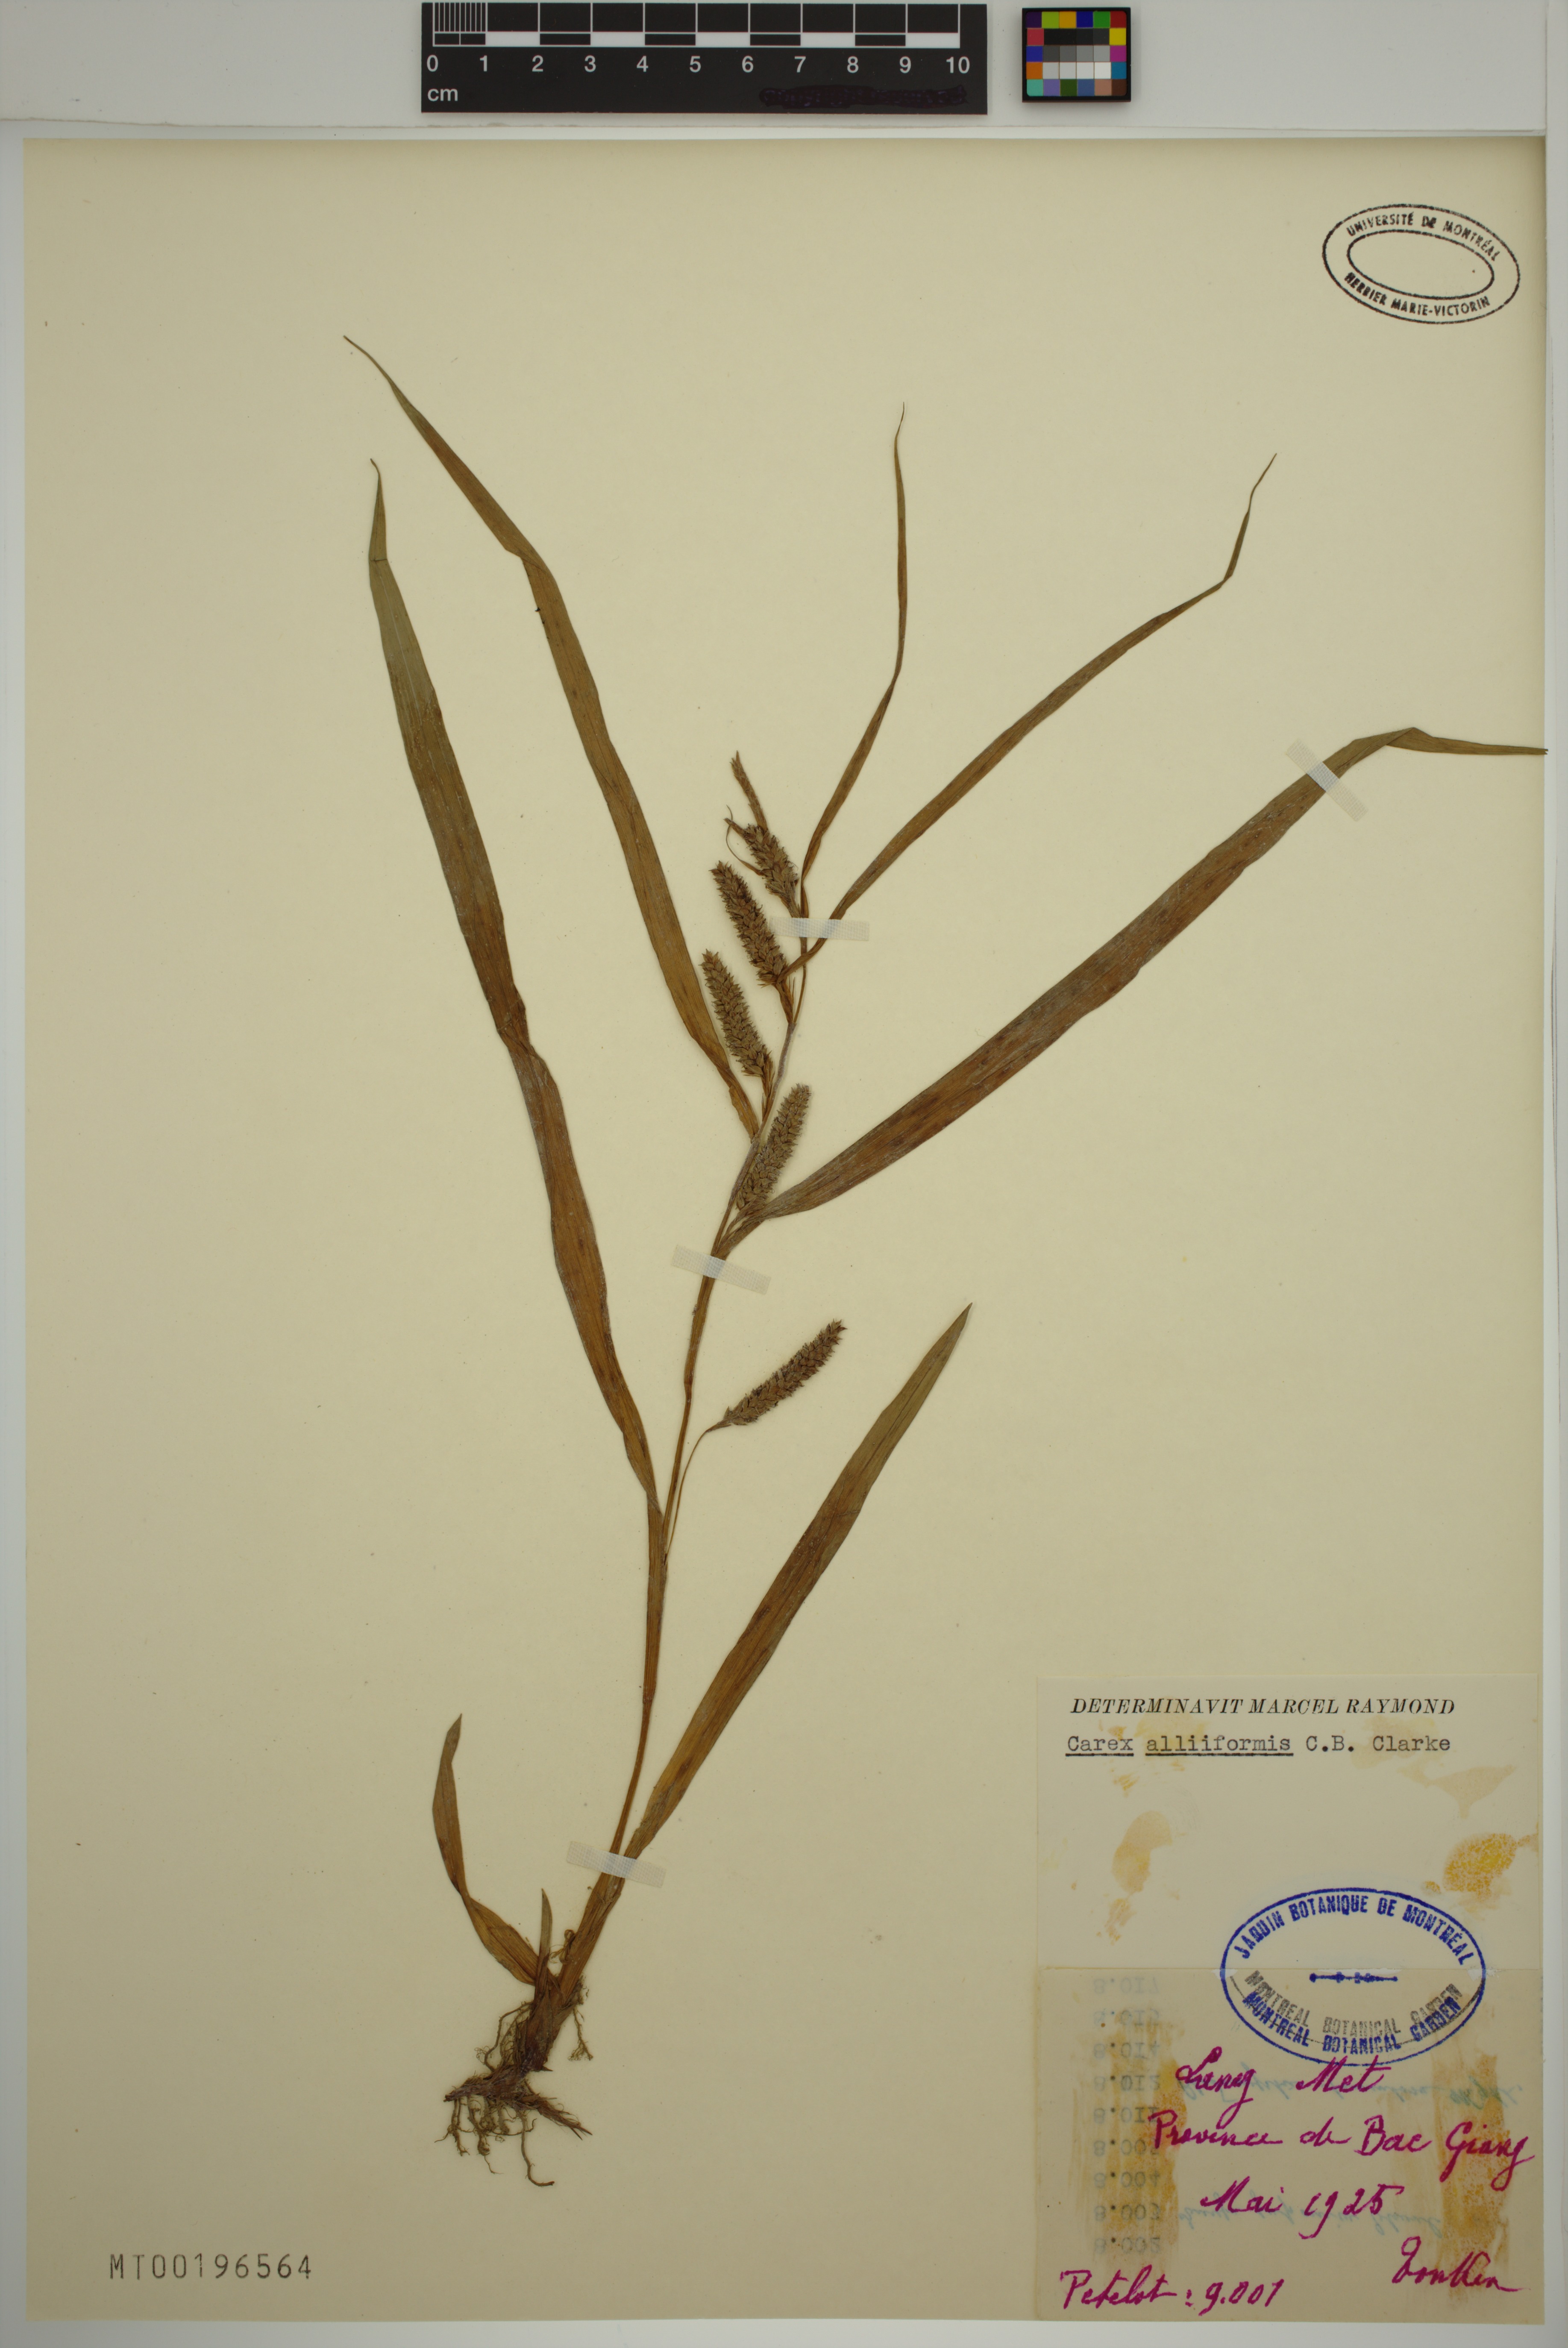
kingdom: Plantae
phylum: Tracheophyta
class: Liliopsida
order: Poales
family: Cyperaceae
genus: Carex
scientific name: Carex alliiformis
